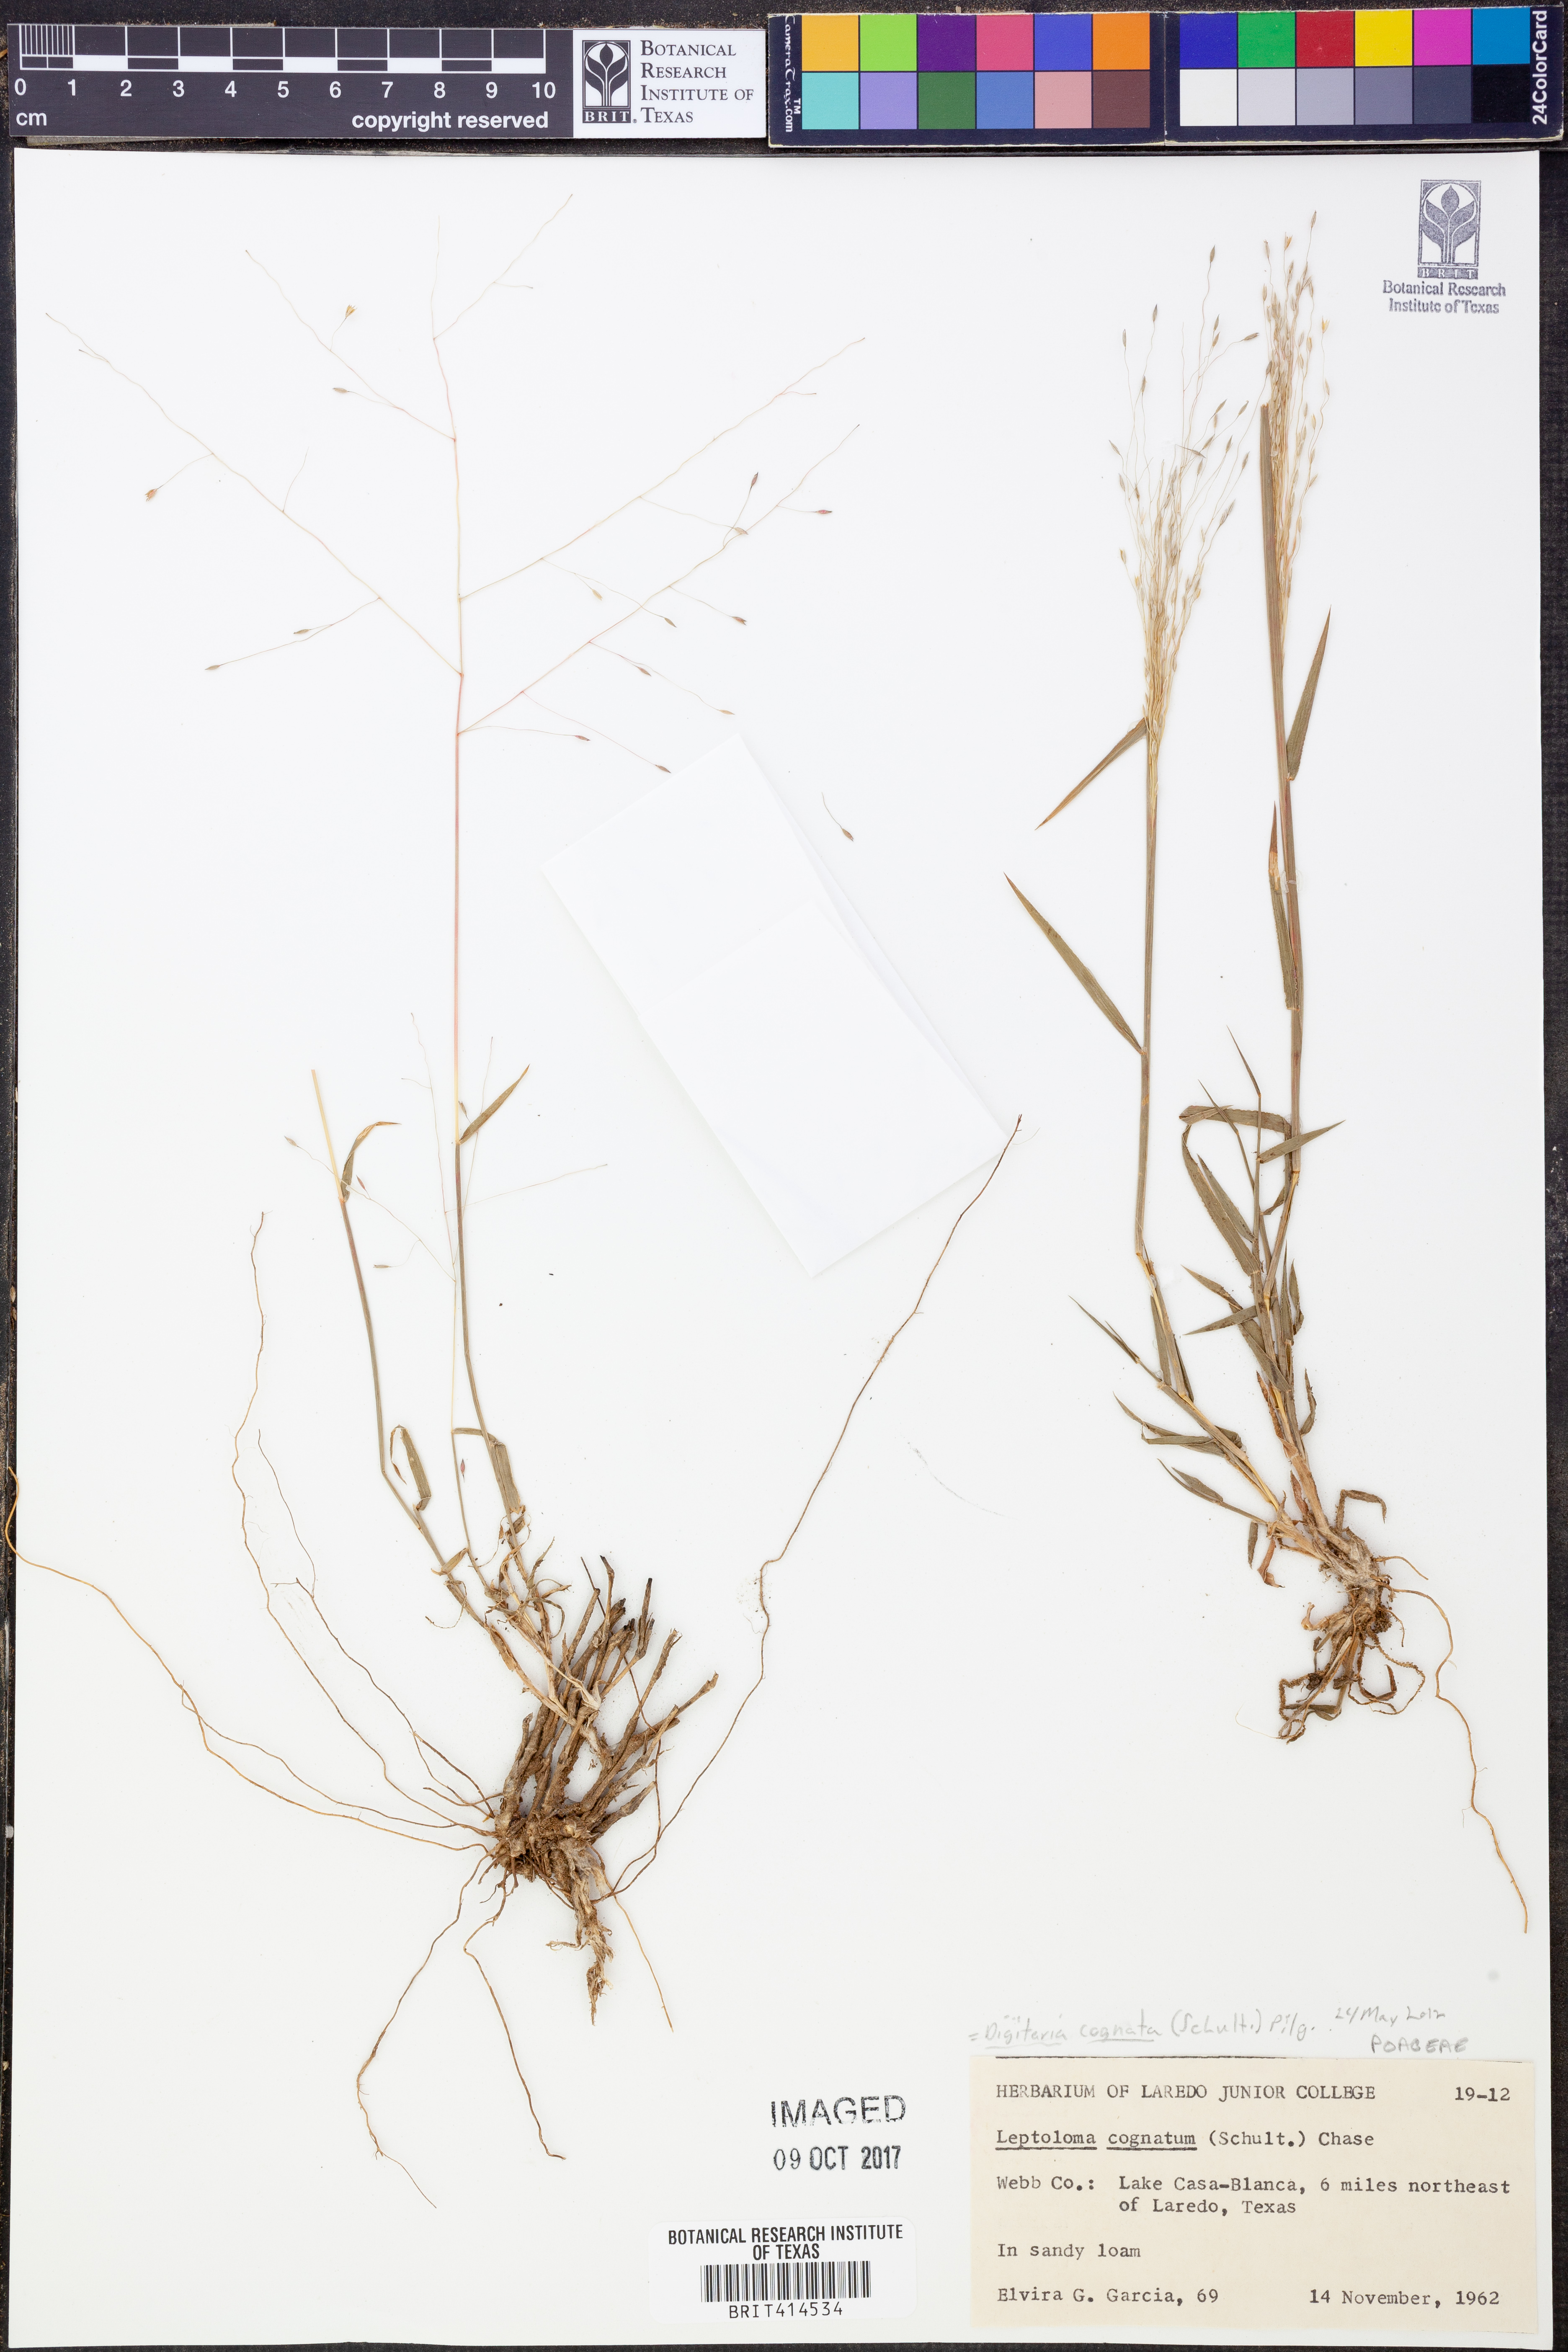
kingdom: Plantae
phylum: Tracheophyta
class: Liliopsida
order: Poales
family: Poaceae
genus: Digitaria
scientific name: Digitaria cognata
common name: Fall witchgrass
